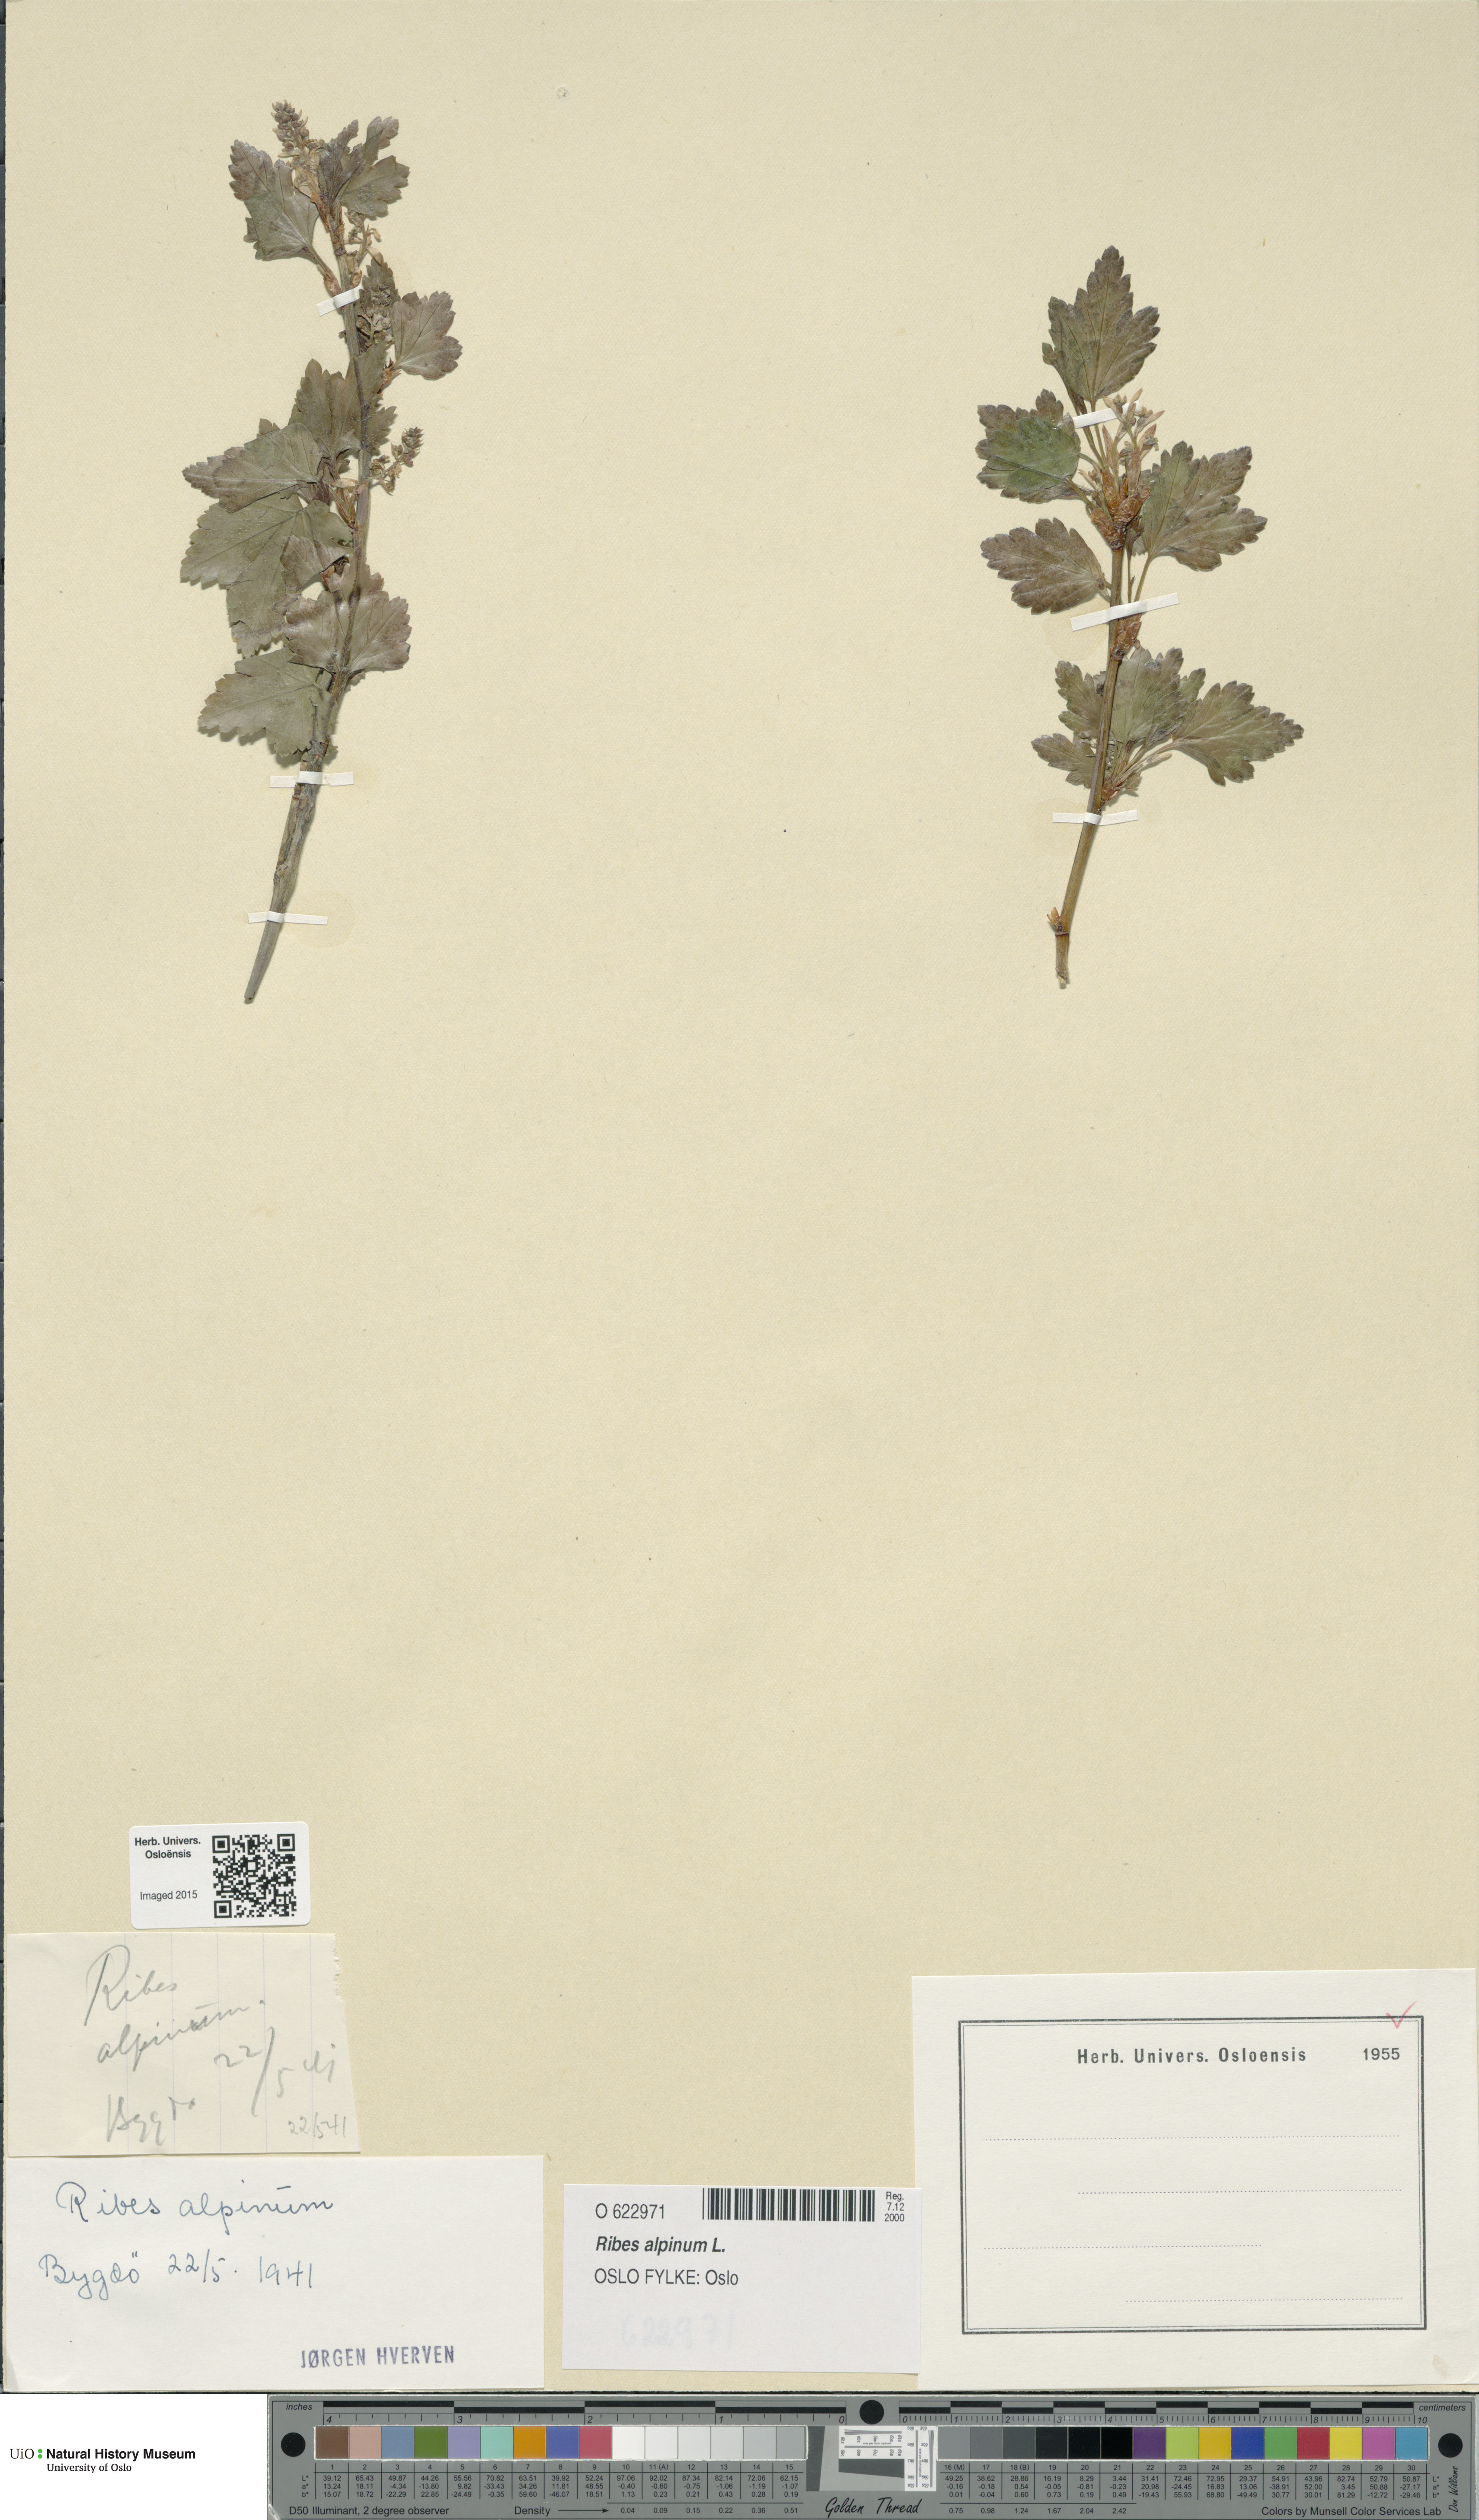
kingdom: Plantae
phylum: Tracheophyta
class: Magnoliopsida
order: Saxifragales
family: Grossulariaceae
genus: Ribes
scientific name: Ribes alpinum
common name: Alpine currant
